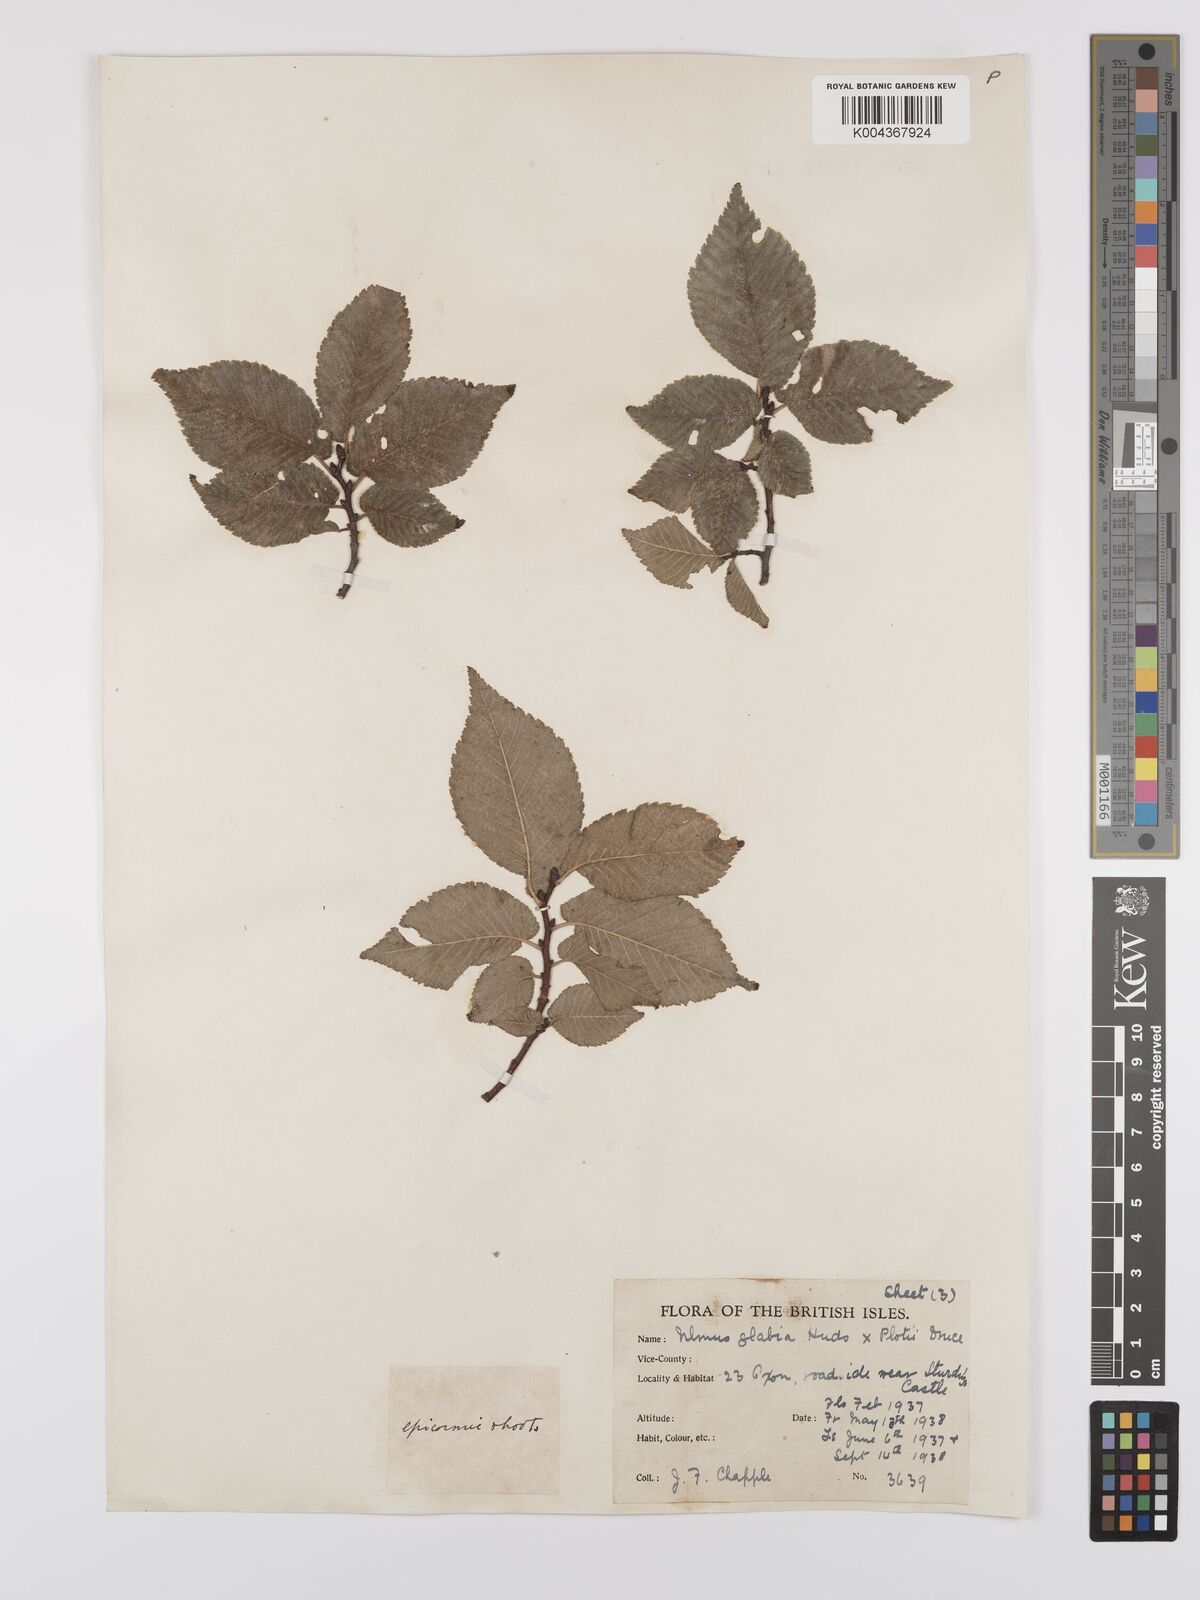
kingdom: Plantae
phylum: Tracheophyta
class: Magnoliopsida
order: Rosales
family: Ulmaceae
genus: Ulmus
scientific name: Ulmus
